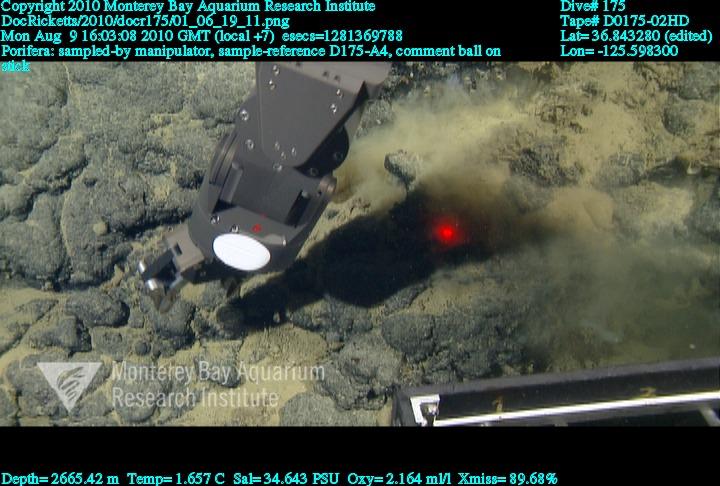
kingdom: Animalia
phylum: Porifera
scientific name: Porifera
